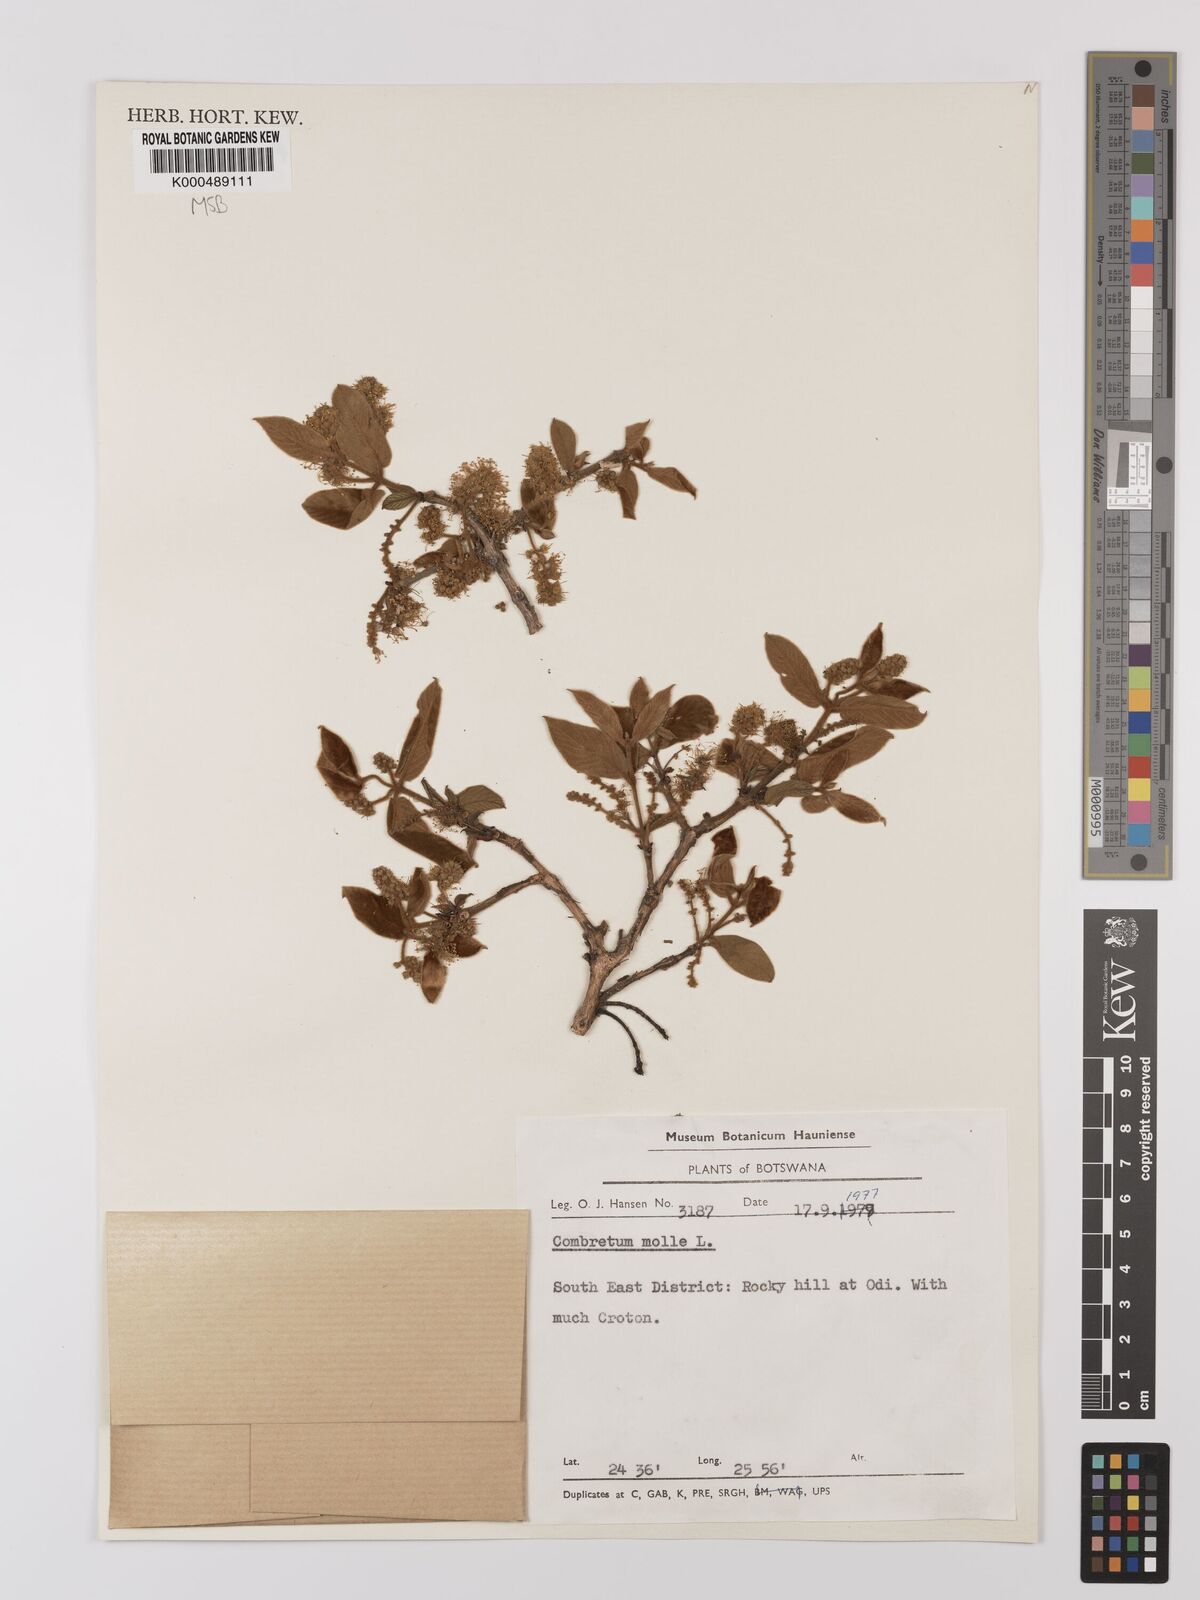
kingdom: Plantae
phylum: Tracheophyta
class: Magnoliopsida
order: Myrtales
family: Combretaceae
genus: Combretum
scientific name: Combretum molle
